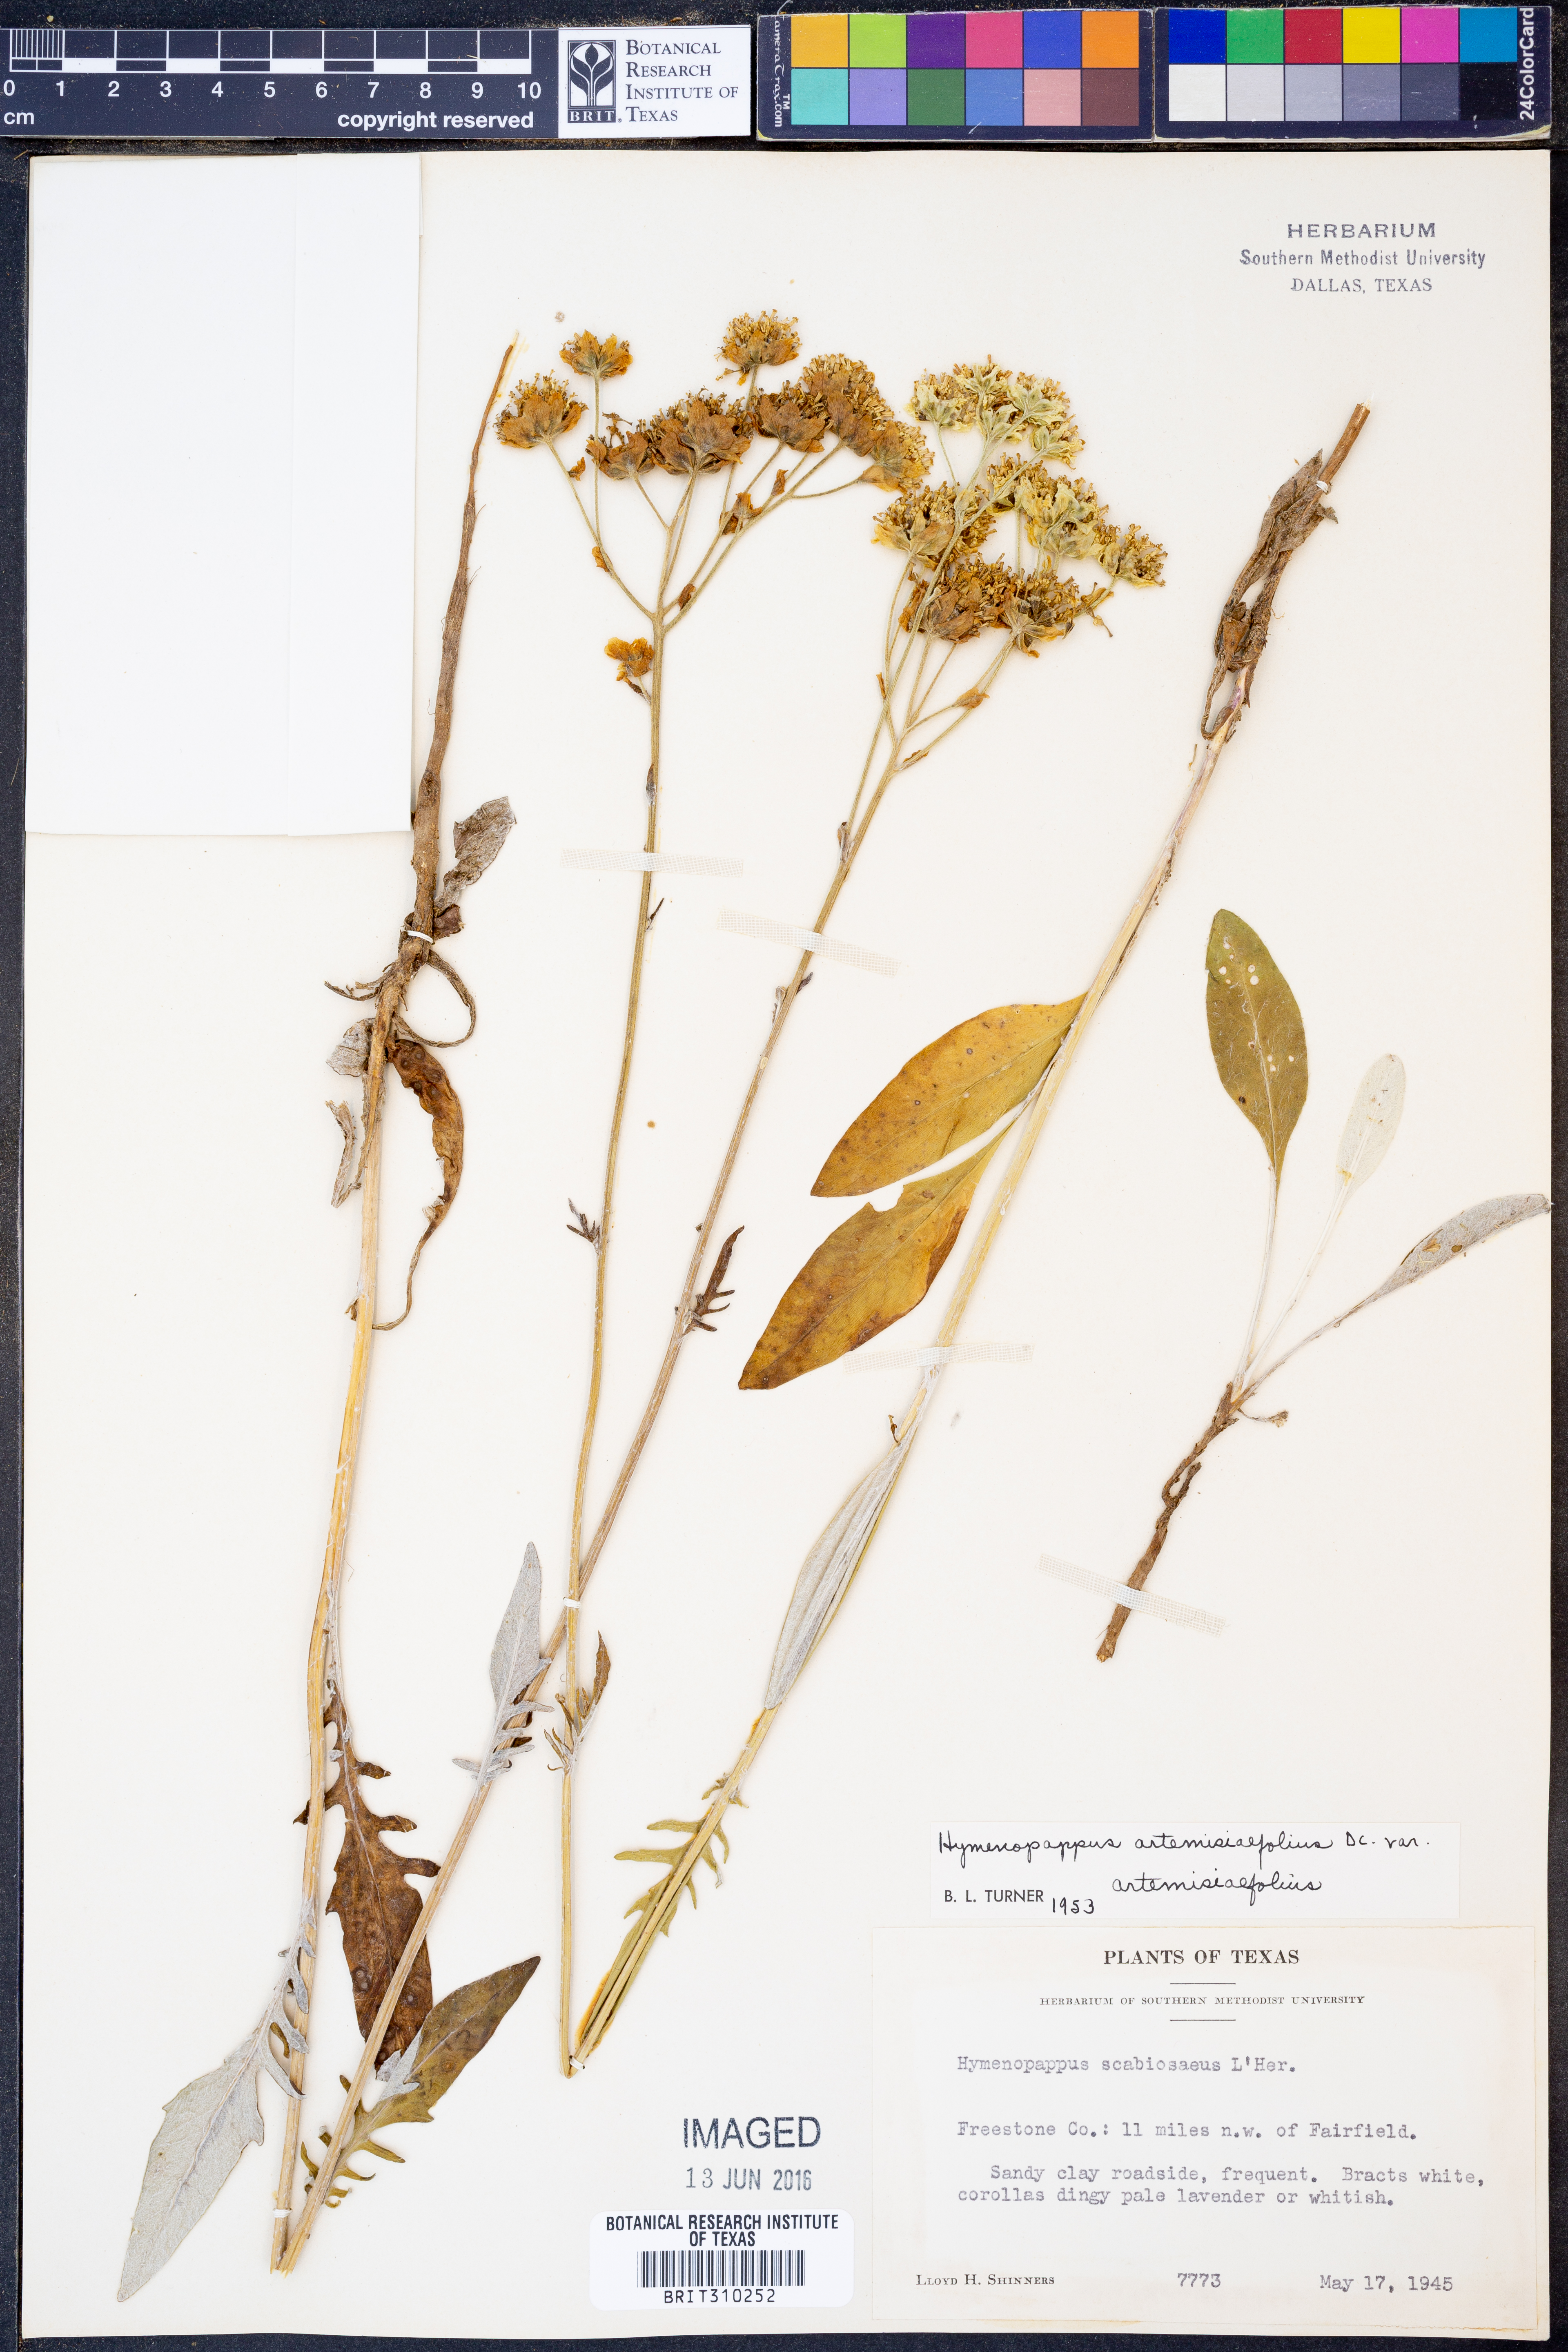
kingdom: Plantae
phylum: Tracheophyta
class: Magnoliopsida
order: Asterales
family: Asteraceae
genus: Hymenopappus
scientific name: Hymenopappus artemisiifolius
